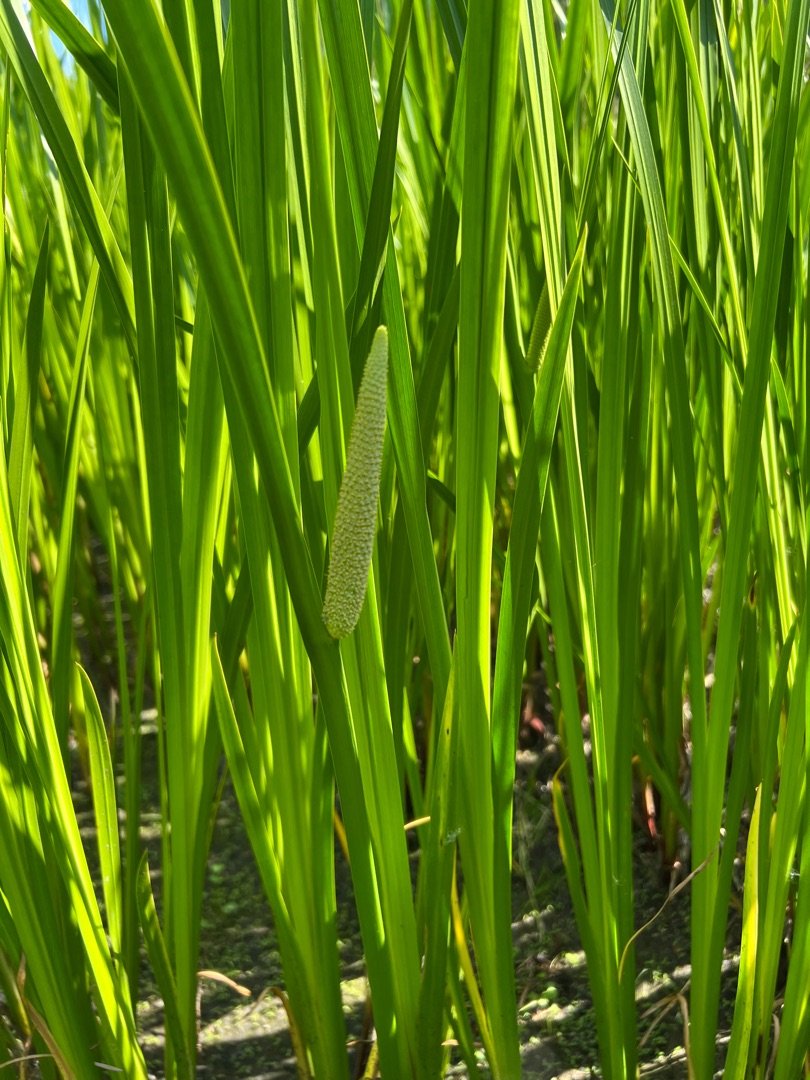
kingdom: Plantae
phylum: Tracheophyta
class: Liliopsida
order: Acorales
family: Acoraceae
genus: Acorus
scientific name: Acorus calamus
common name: Kalmus
